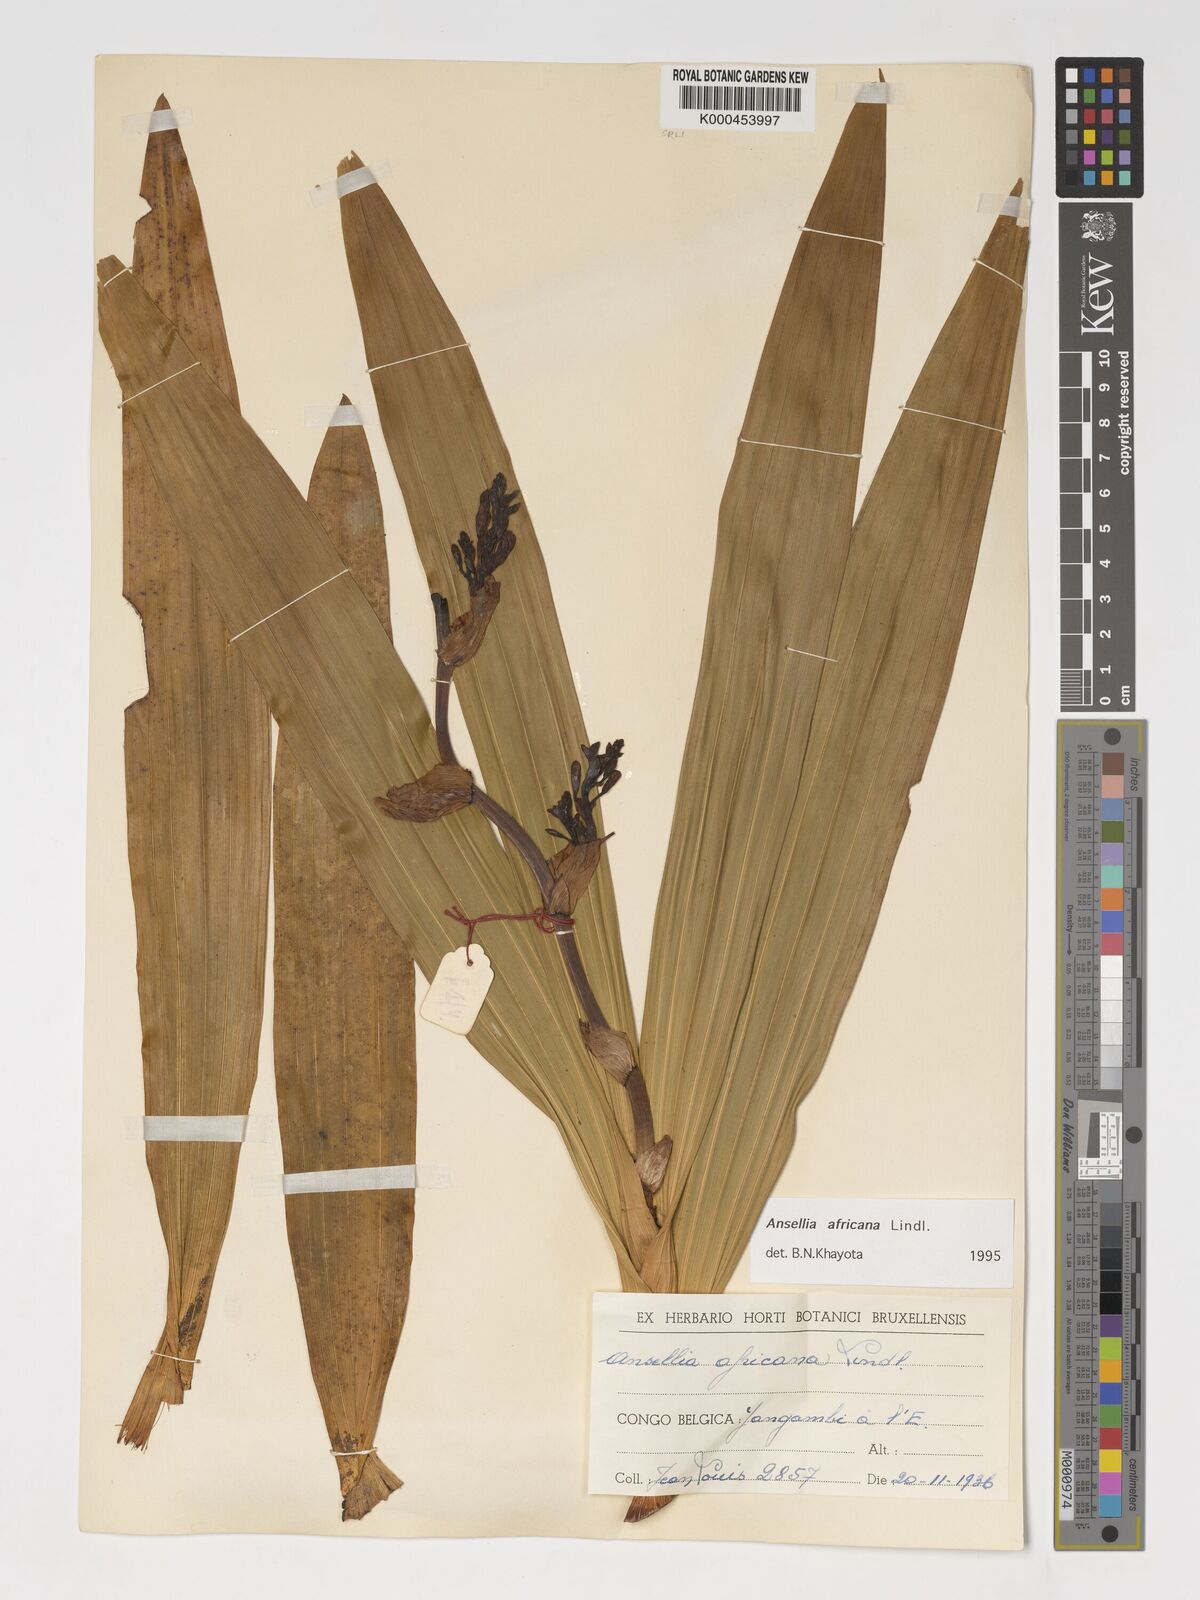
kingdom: Plantae
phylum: Tracheophyta
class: Liliopsida
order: Asparagales
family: Orchidaceae
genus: Ansellia
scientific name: Ansellia africana
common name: African ansellia
